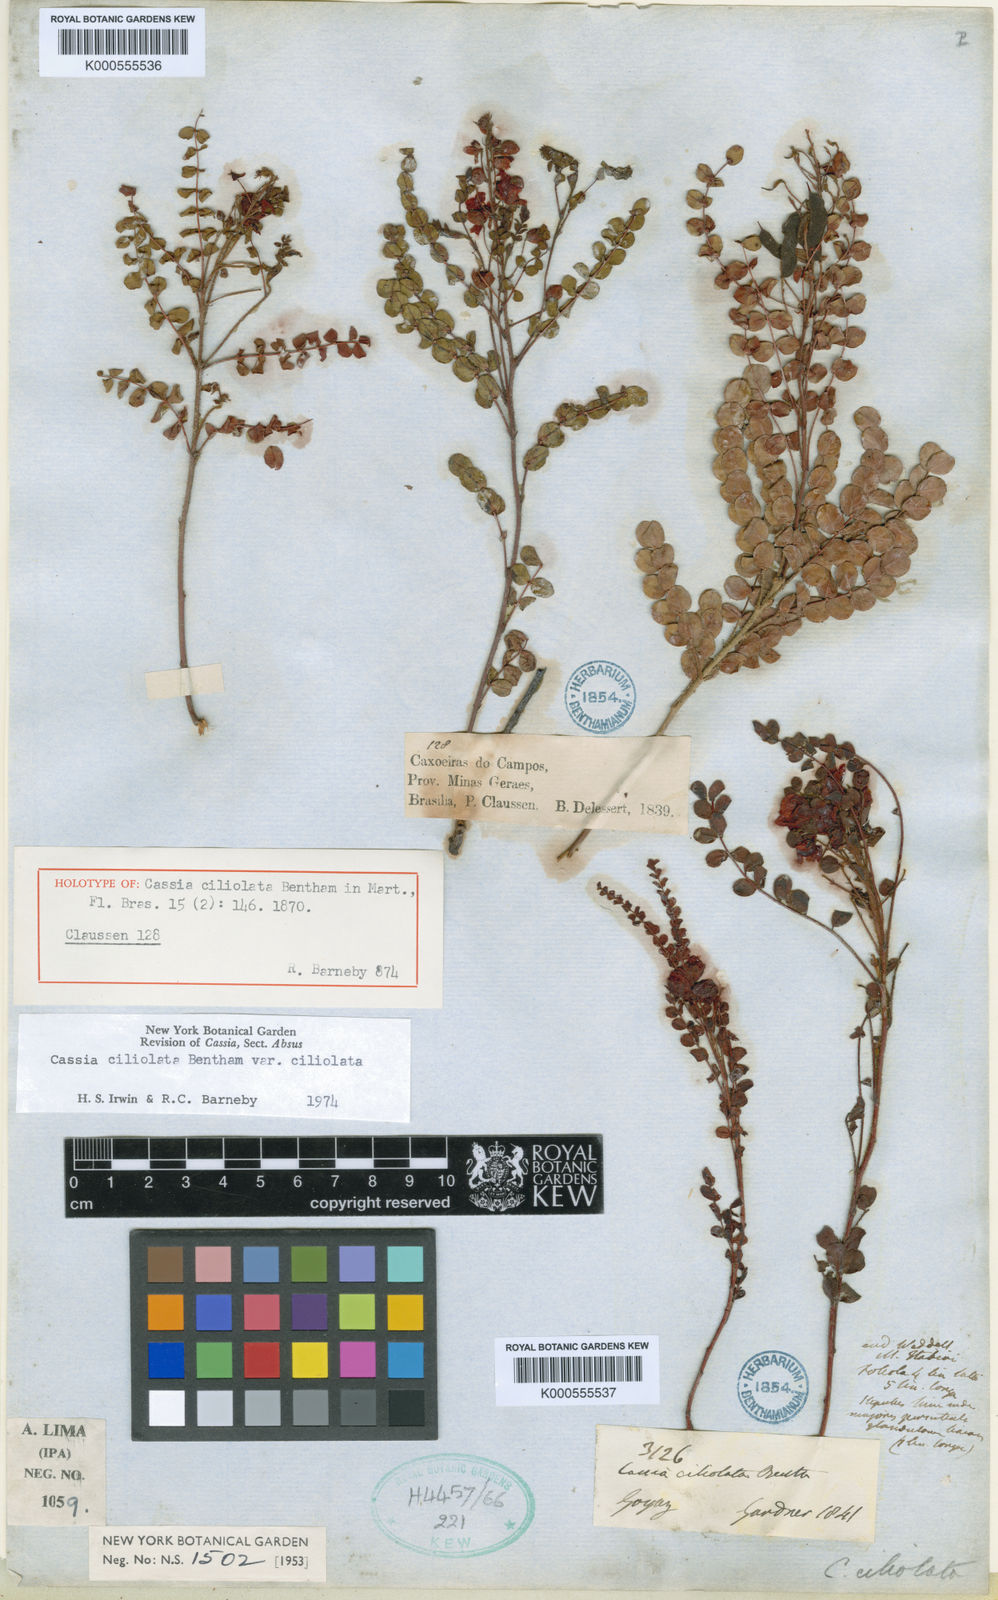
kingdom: Plantae
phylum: Tracheophyta
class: Magnoliopsida
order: Fabales
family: Fabaceae
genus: Chamaecrista
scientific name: Chamaecrista ciliolata
